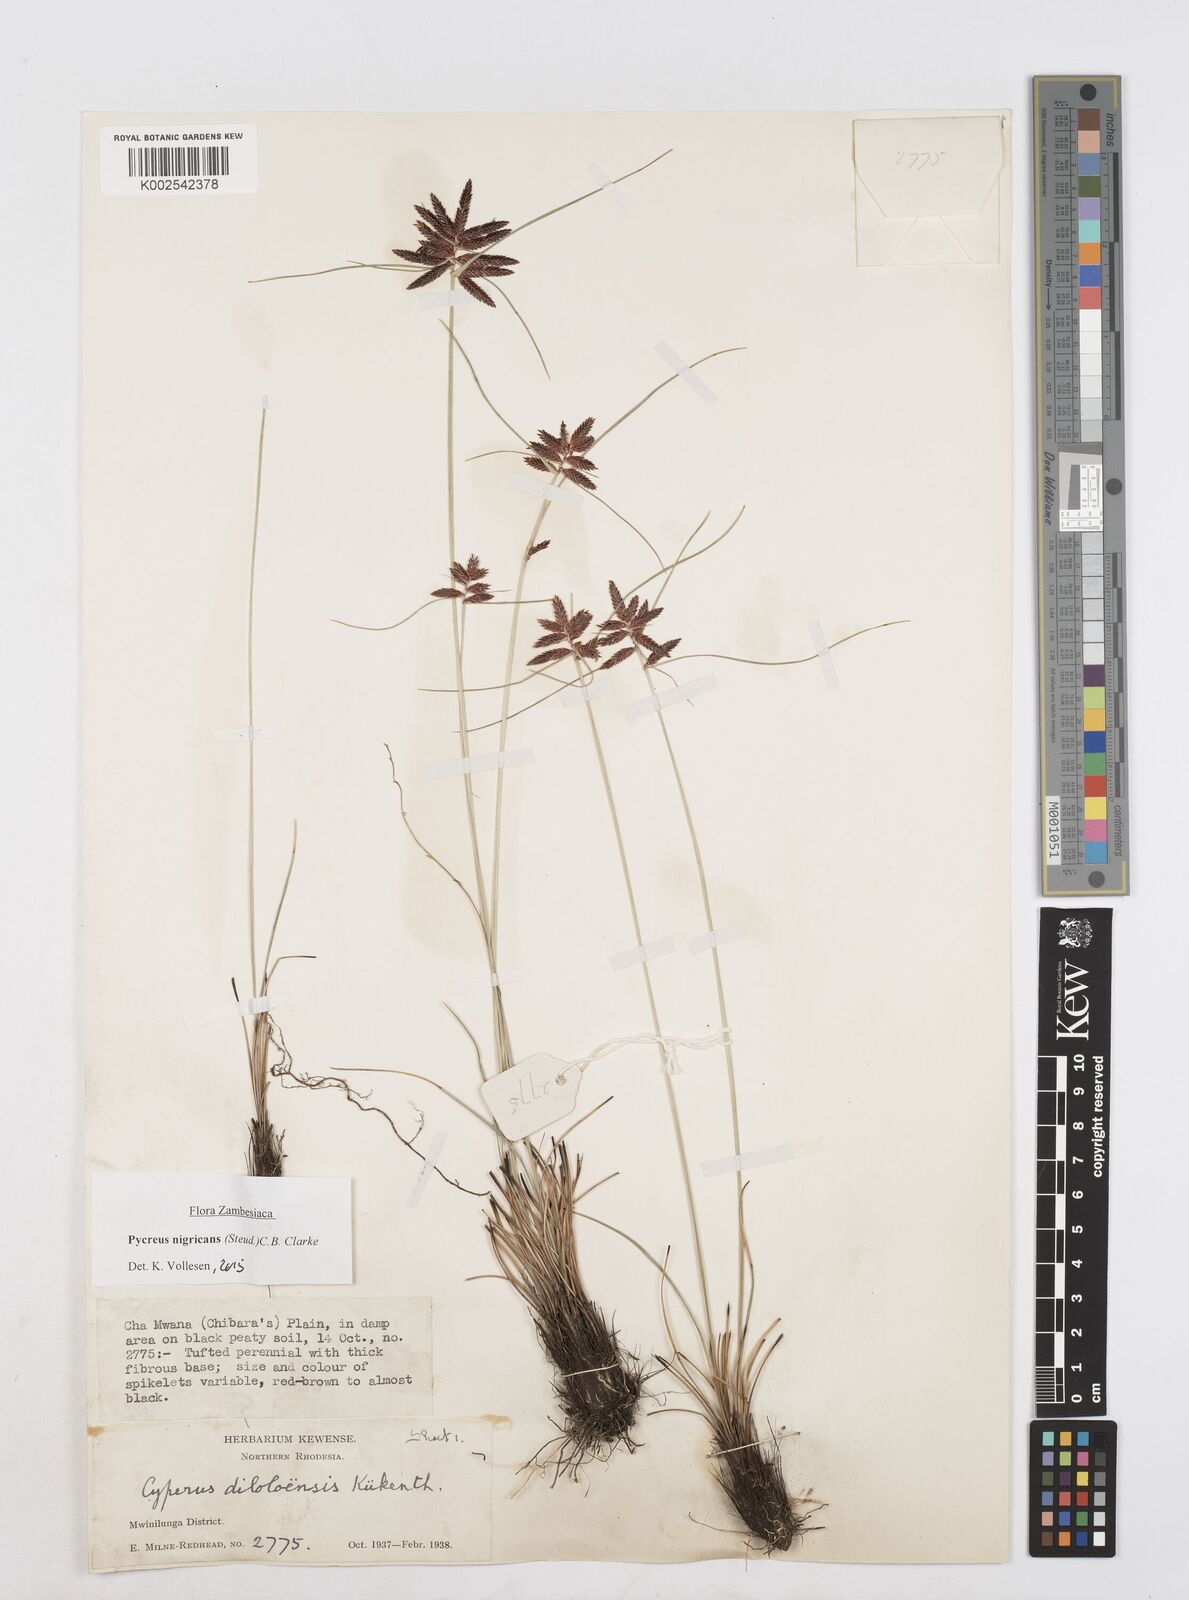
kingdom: Plantae
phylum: Tracheophyta
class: Liliopsida
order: Poales
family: Cyperaceae
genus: Cyperus
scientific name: Cyperus nigricans
